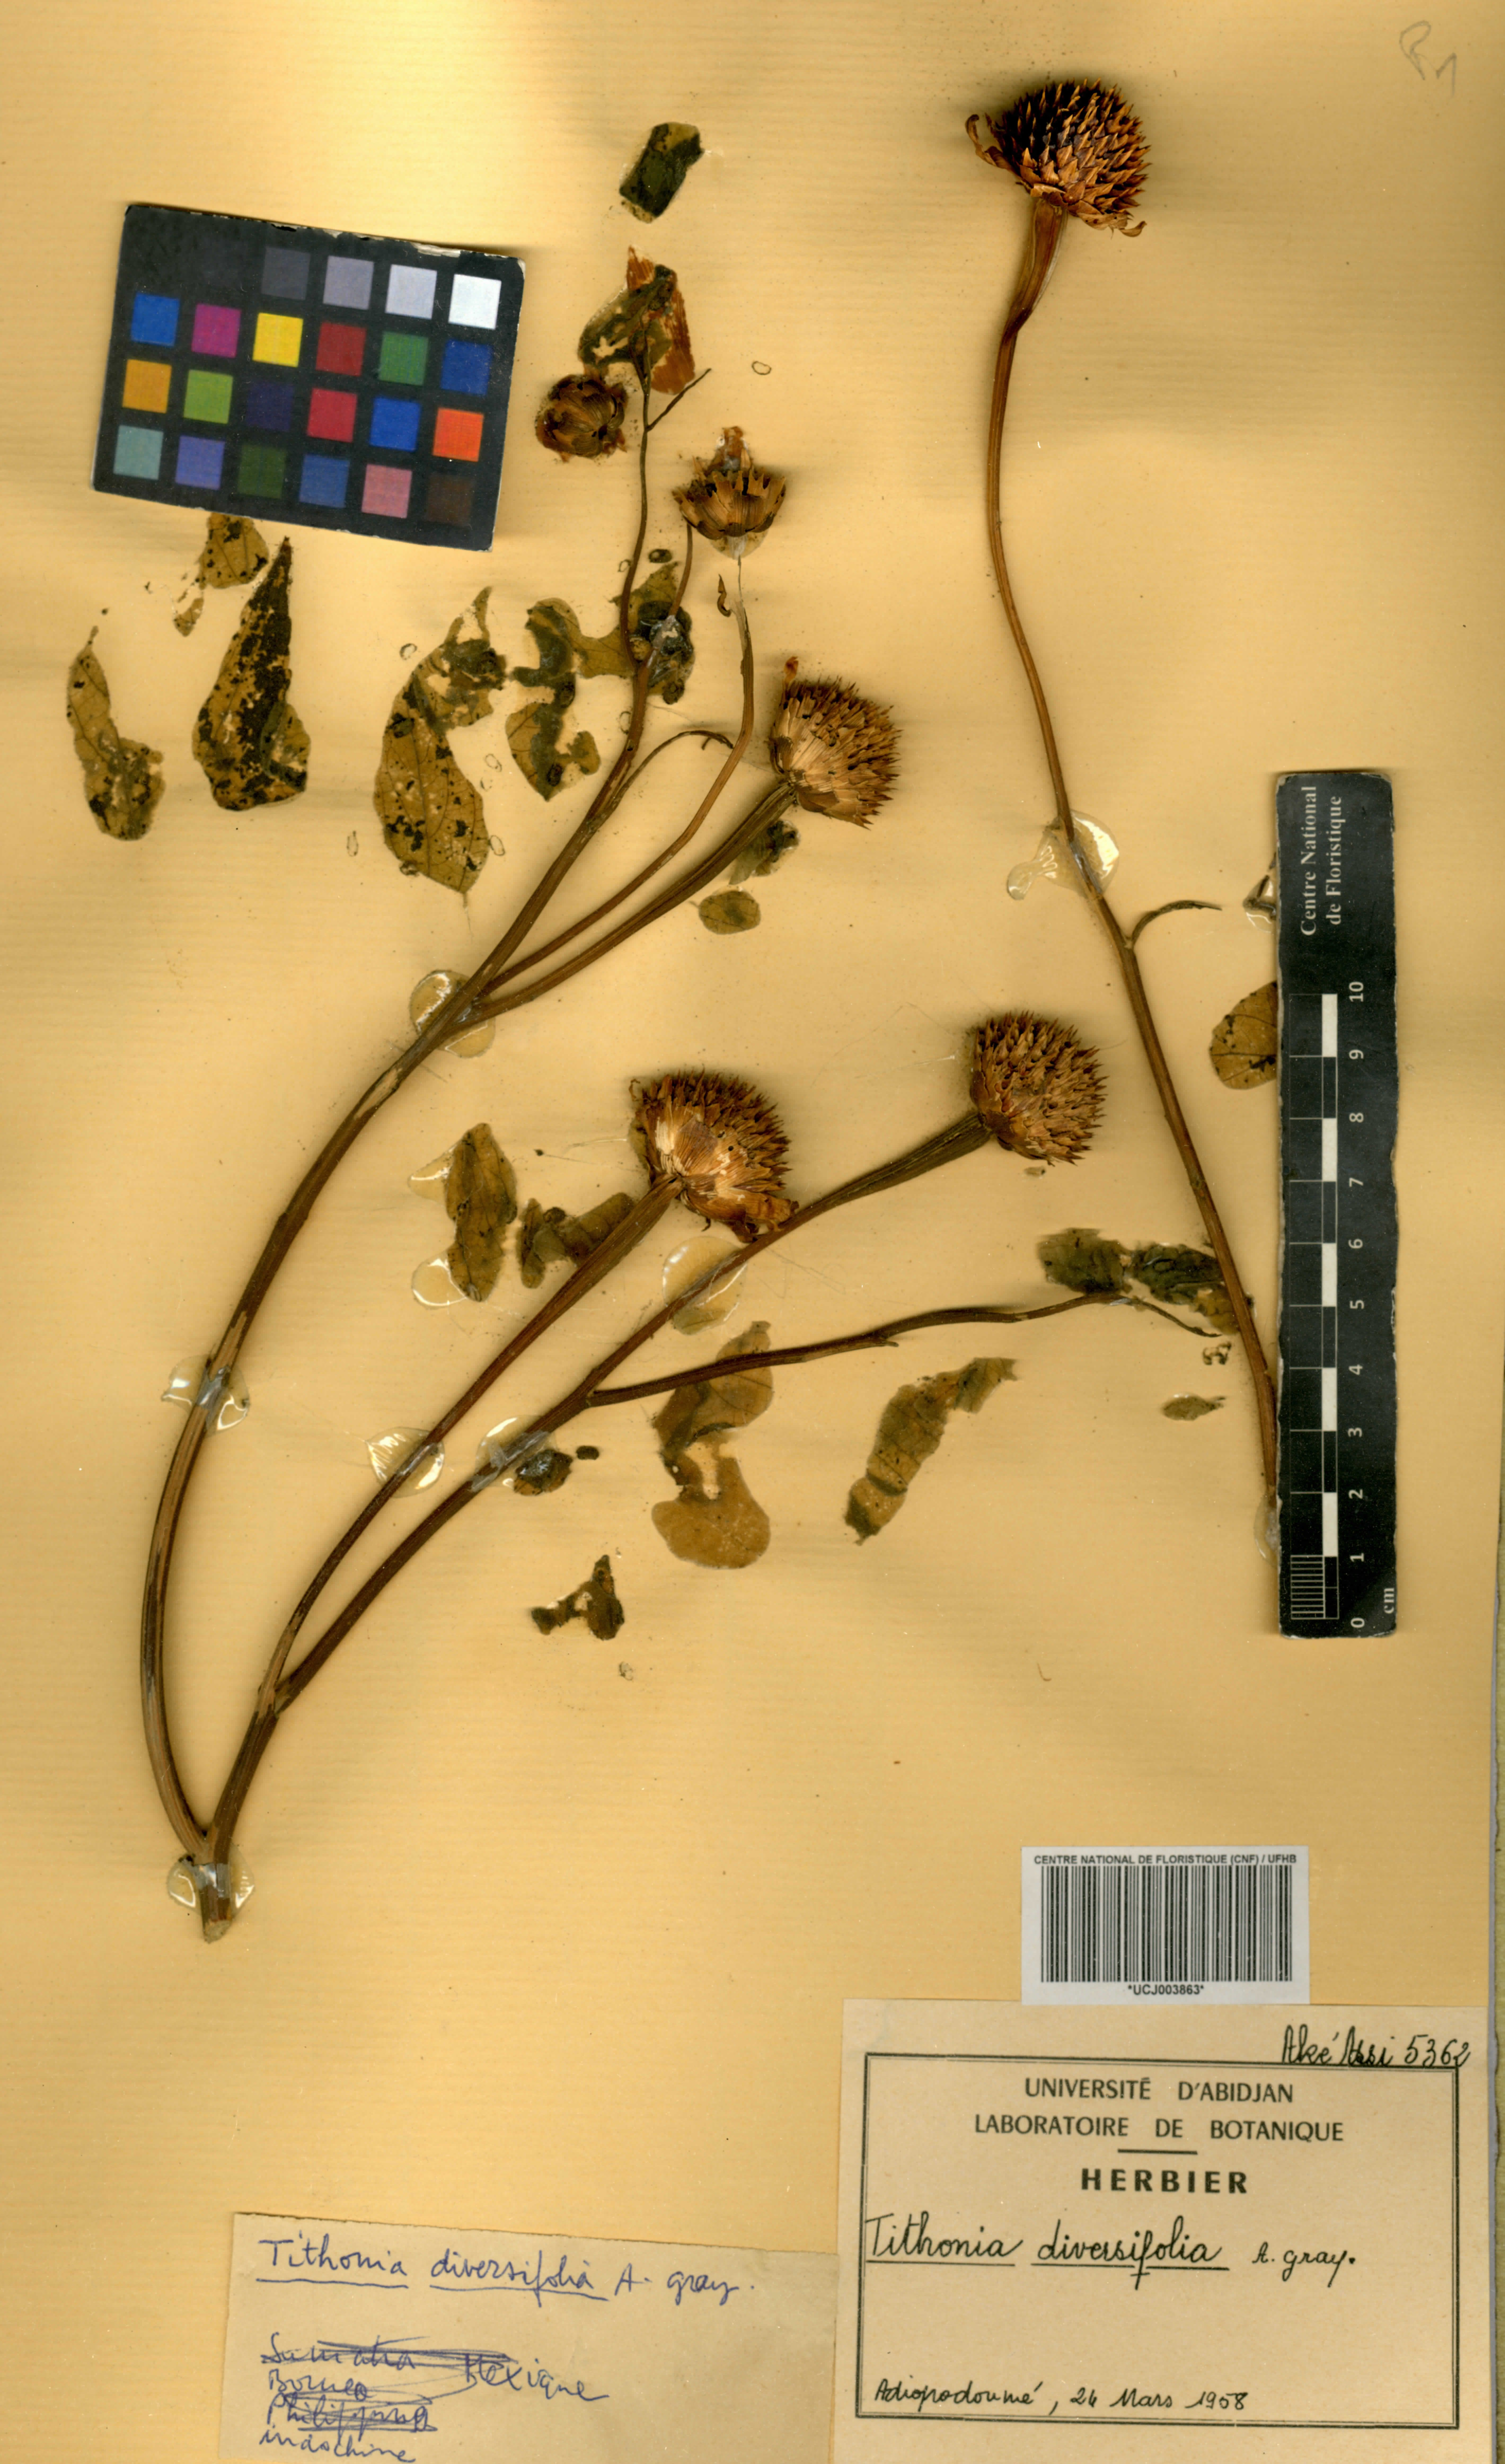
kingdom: Plantae
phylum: Tracheophyta
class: Magnoliopsida
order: Asterales
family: Asteraceae
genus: Tithonia
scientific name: Tithonia diversifolia
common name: Tree marigold
